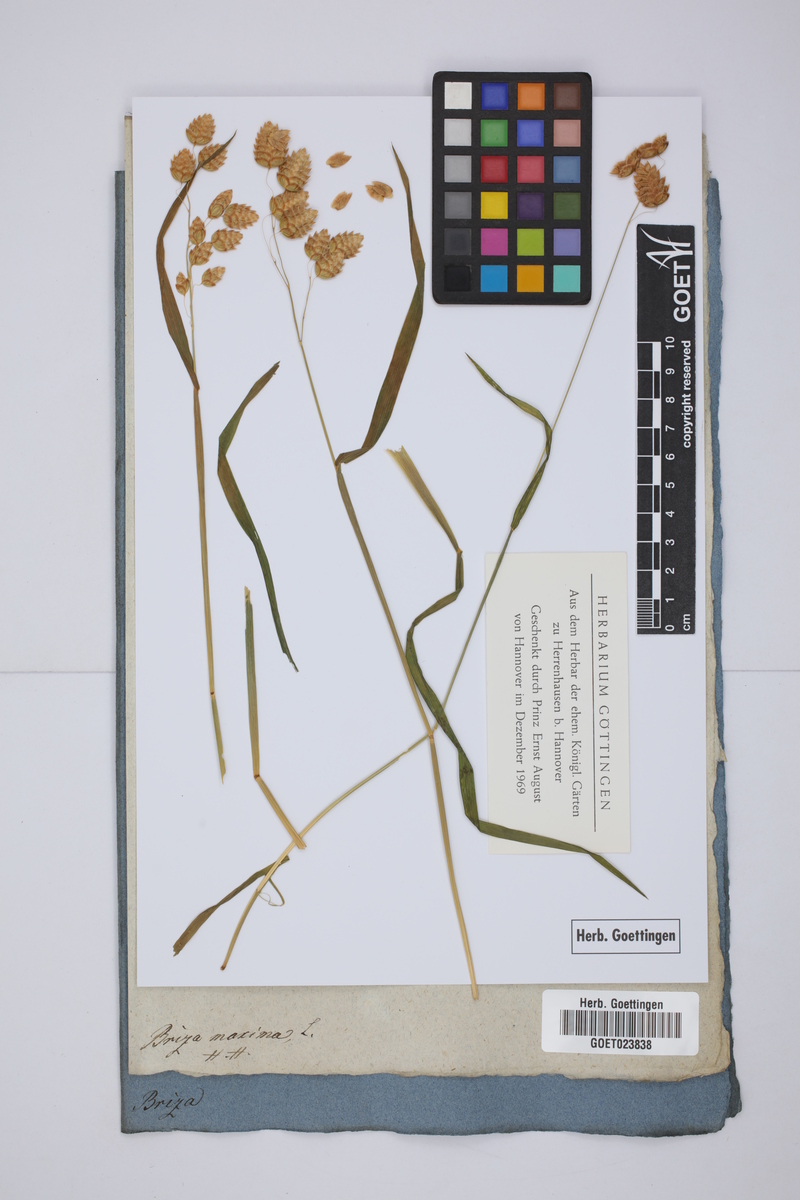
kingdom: Plantae
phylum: Tracheophyta
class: Liliopsida
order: Poales
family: Poaceae
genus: Briza
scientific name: Briza maxima
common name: Big quakinggrass
